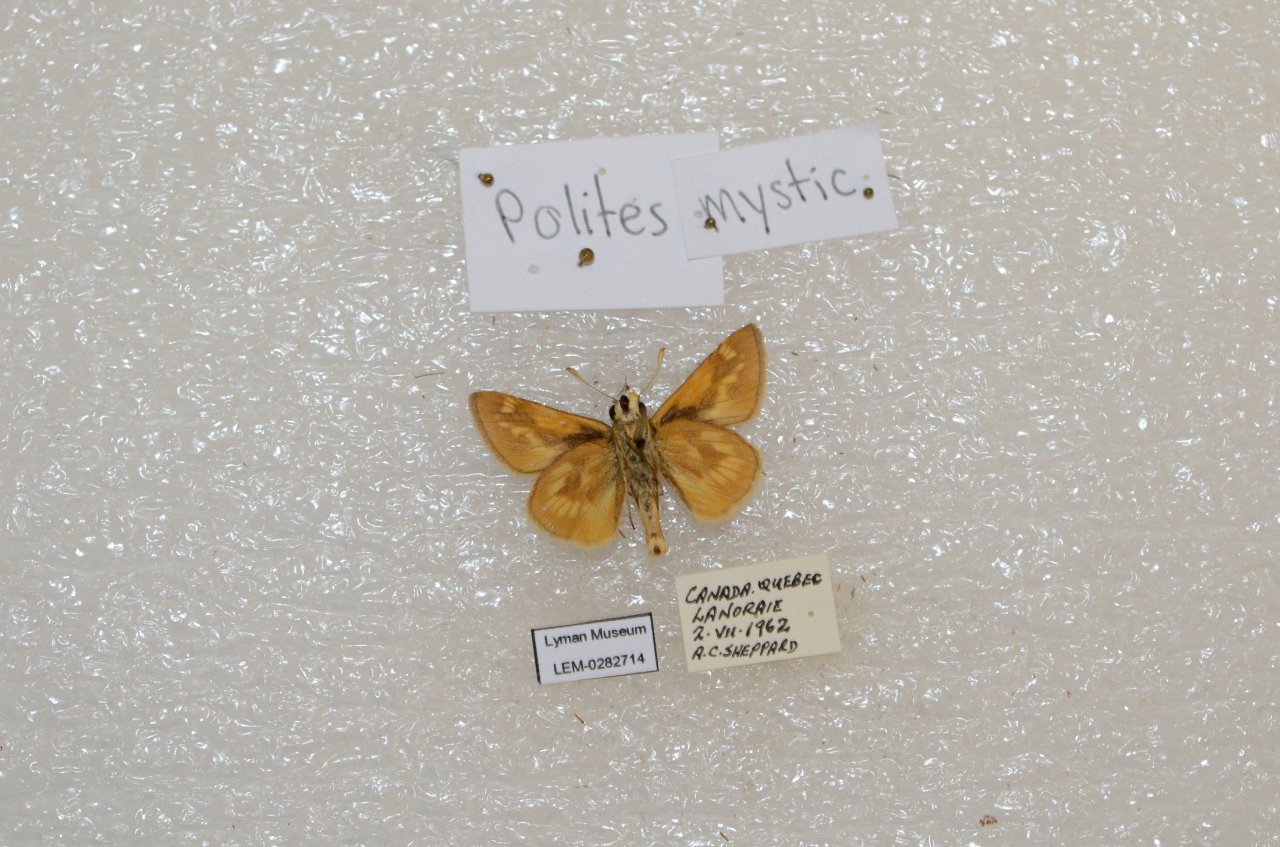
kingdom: Animalia
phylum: Arthropoda
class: Insecta
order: Lepidoptera
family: Hesperiidae
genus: Polites
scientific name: Polites
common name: Long Dash Skipper
